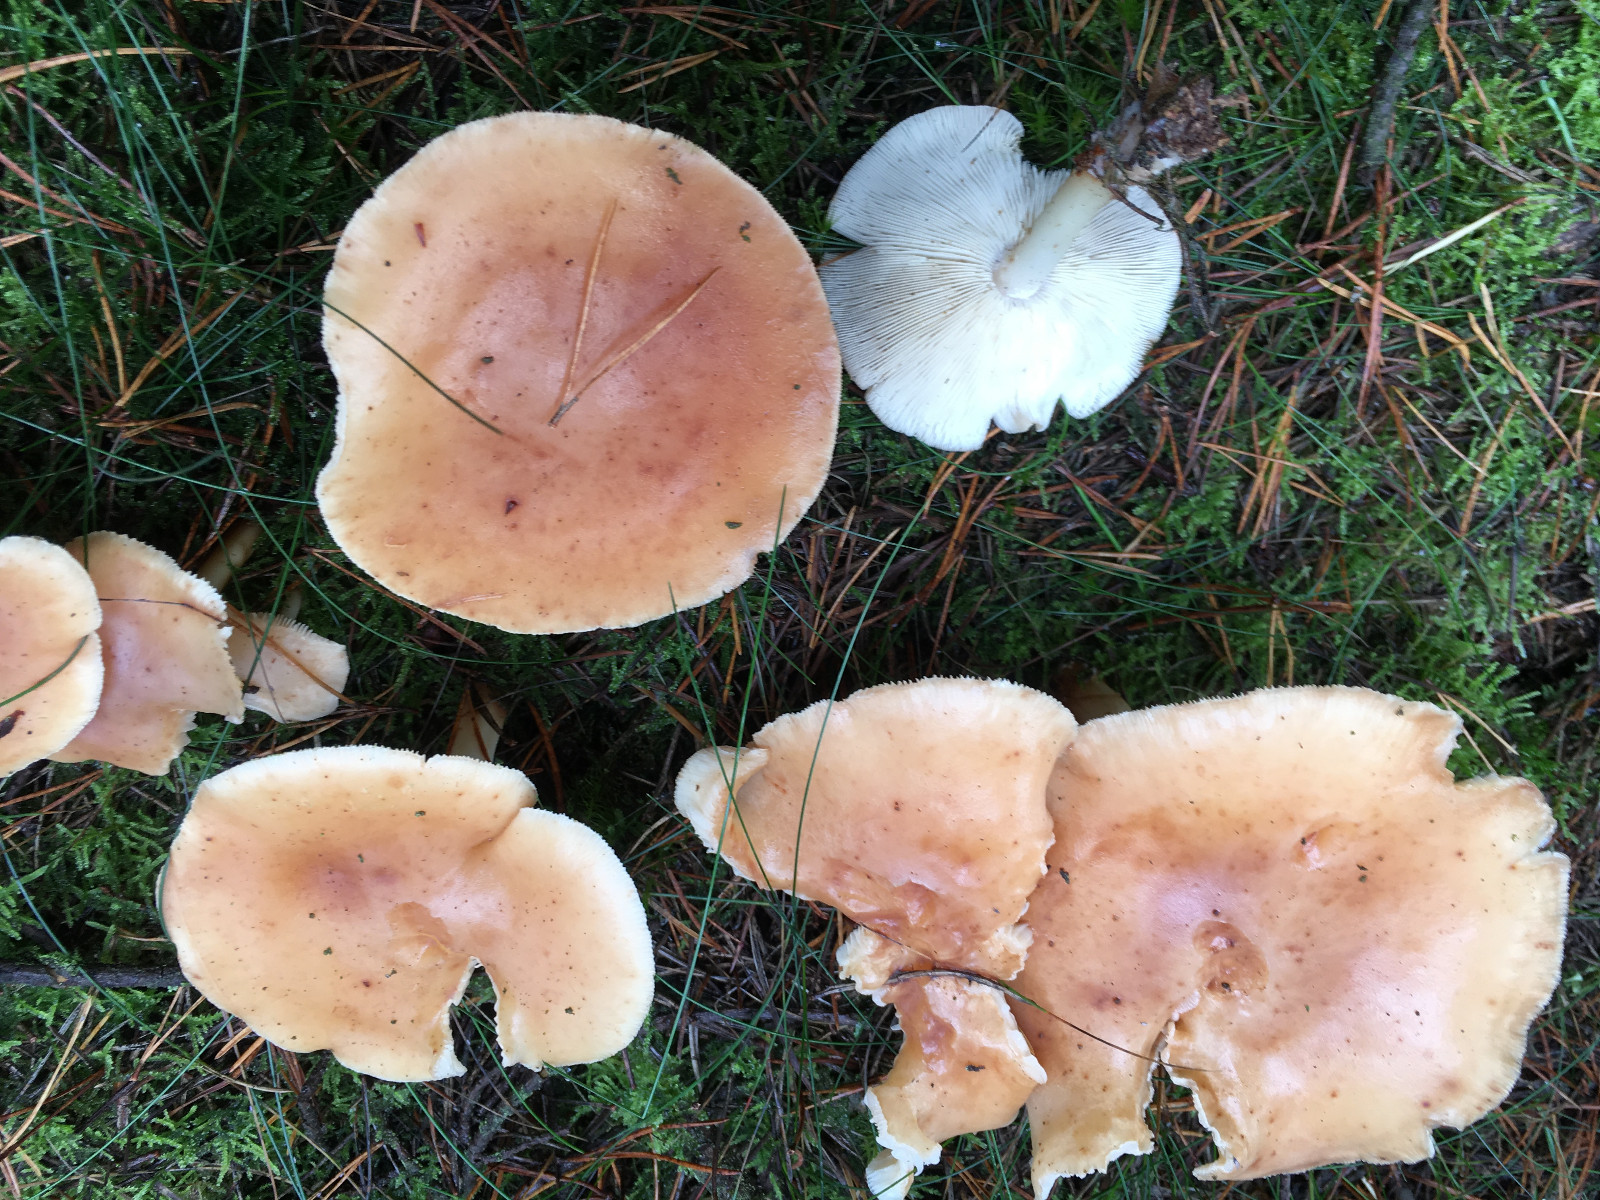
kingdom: Fungi
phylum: Basidiomycota
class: Agaricomycetes
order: Agaricales
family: Omphalotaceae
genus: Rhodocollybia
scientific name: Rhodocollybia maculata
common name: plettet fladhat
